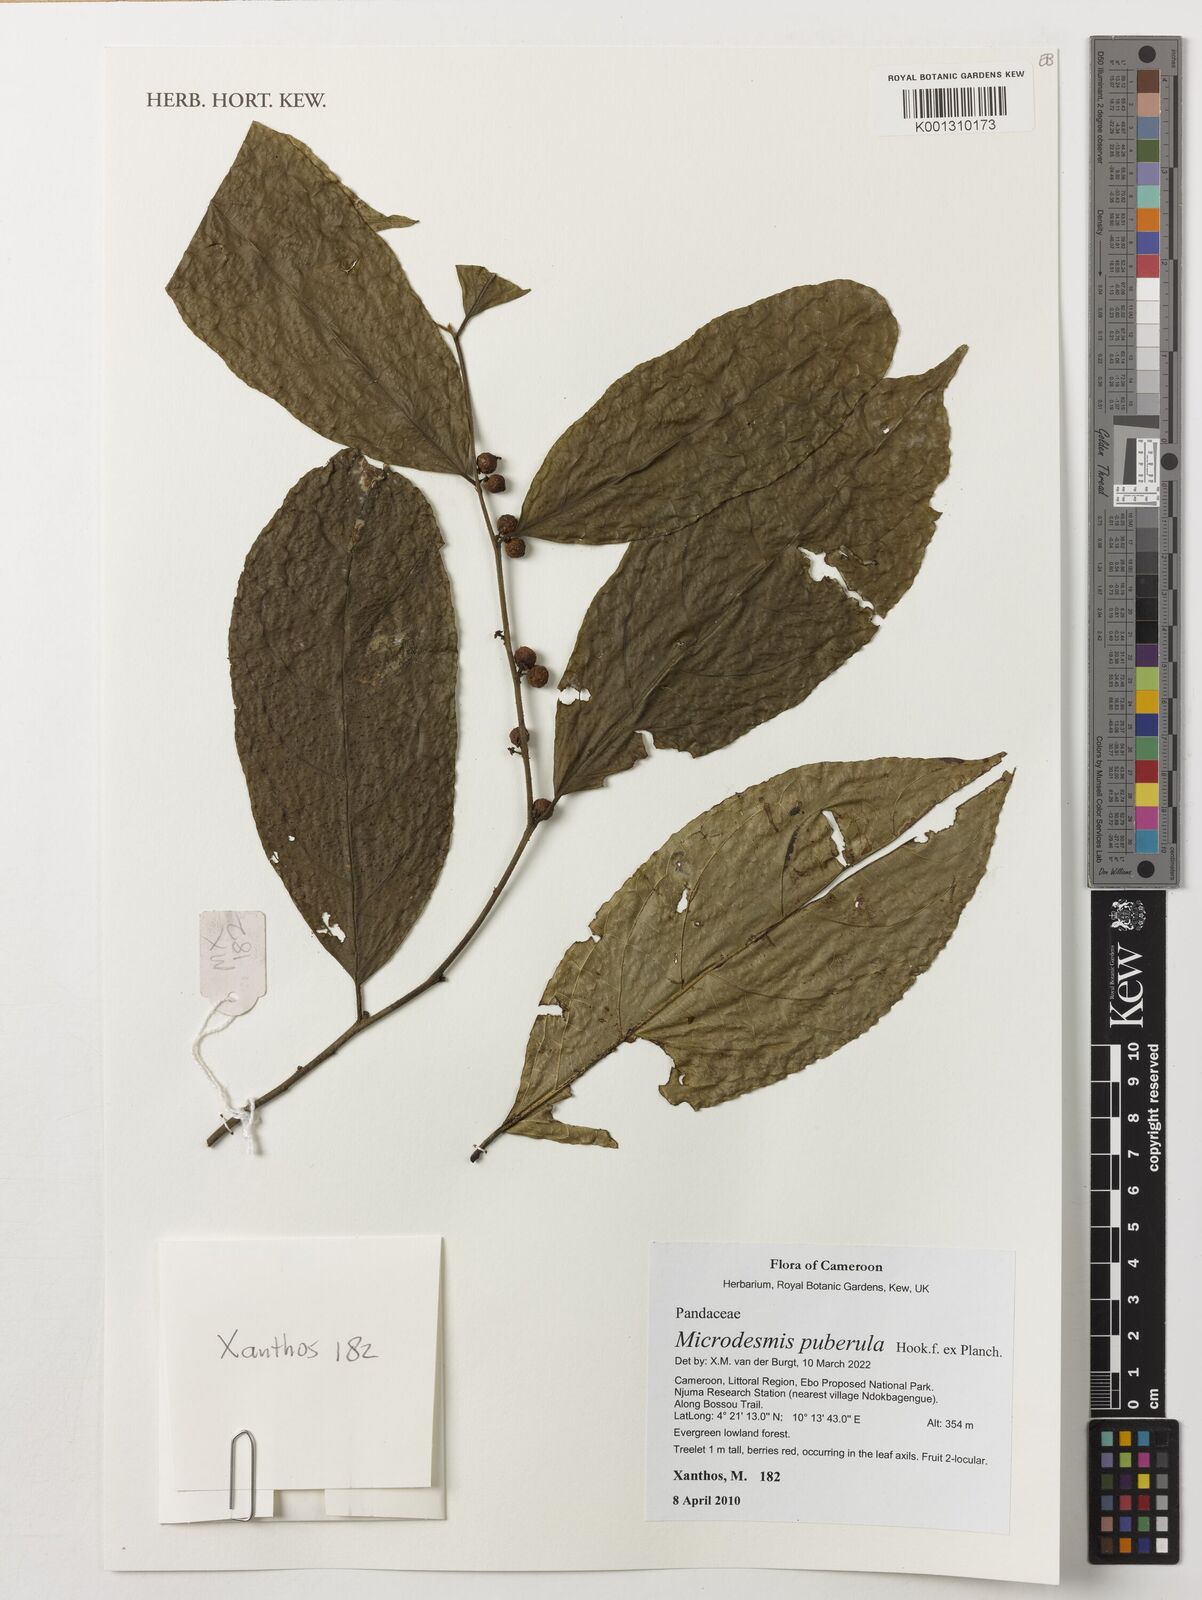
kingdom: Plantae
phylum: Tracheophyta
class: Magnoliopsida
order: Malpighiales
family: Pandaceae
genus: Microdesmis
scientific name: Microdesmis puberula
